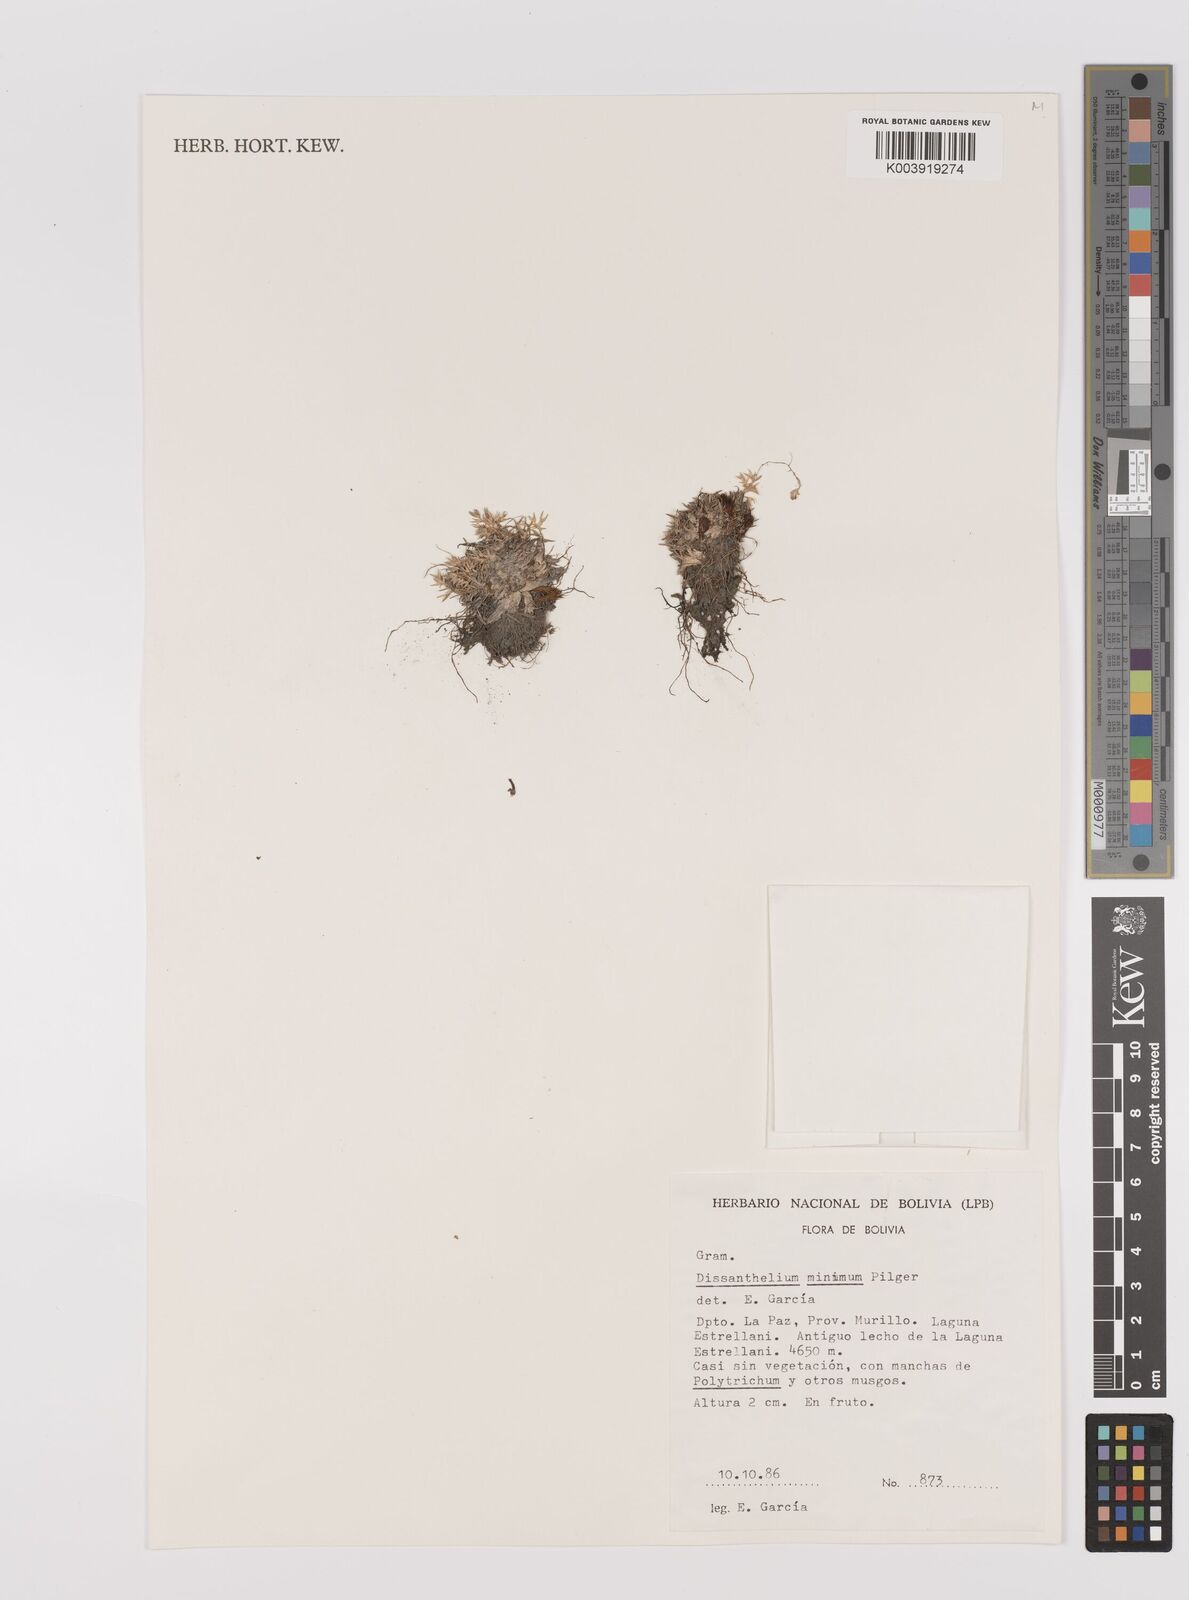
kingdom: Plantae
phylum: Tracheophyta
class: Liliopsida
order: Poales
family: Poaceae
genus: Poa
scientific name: Poa calycina
